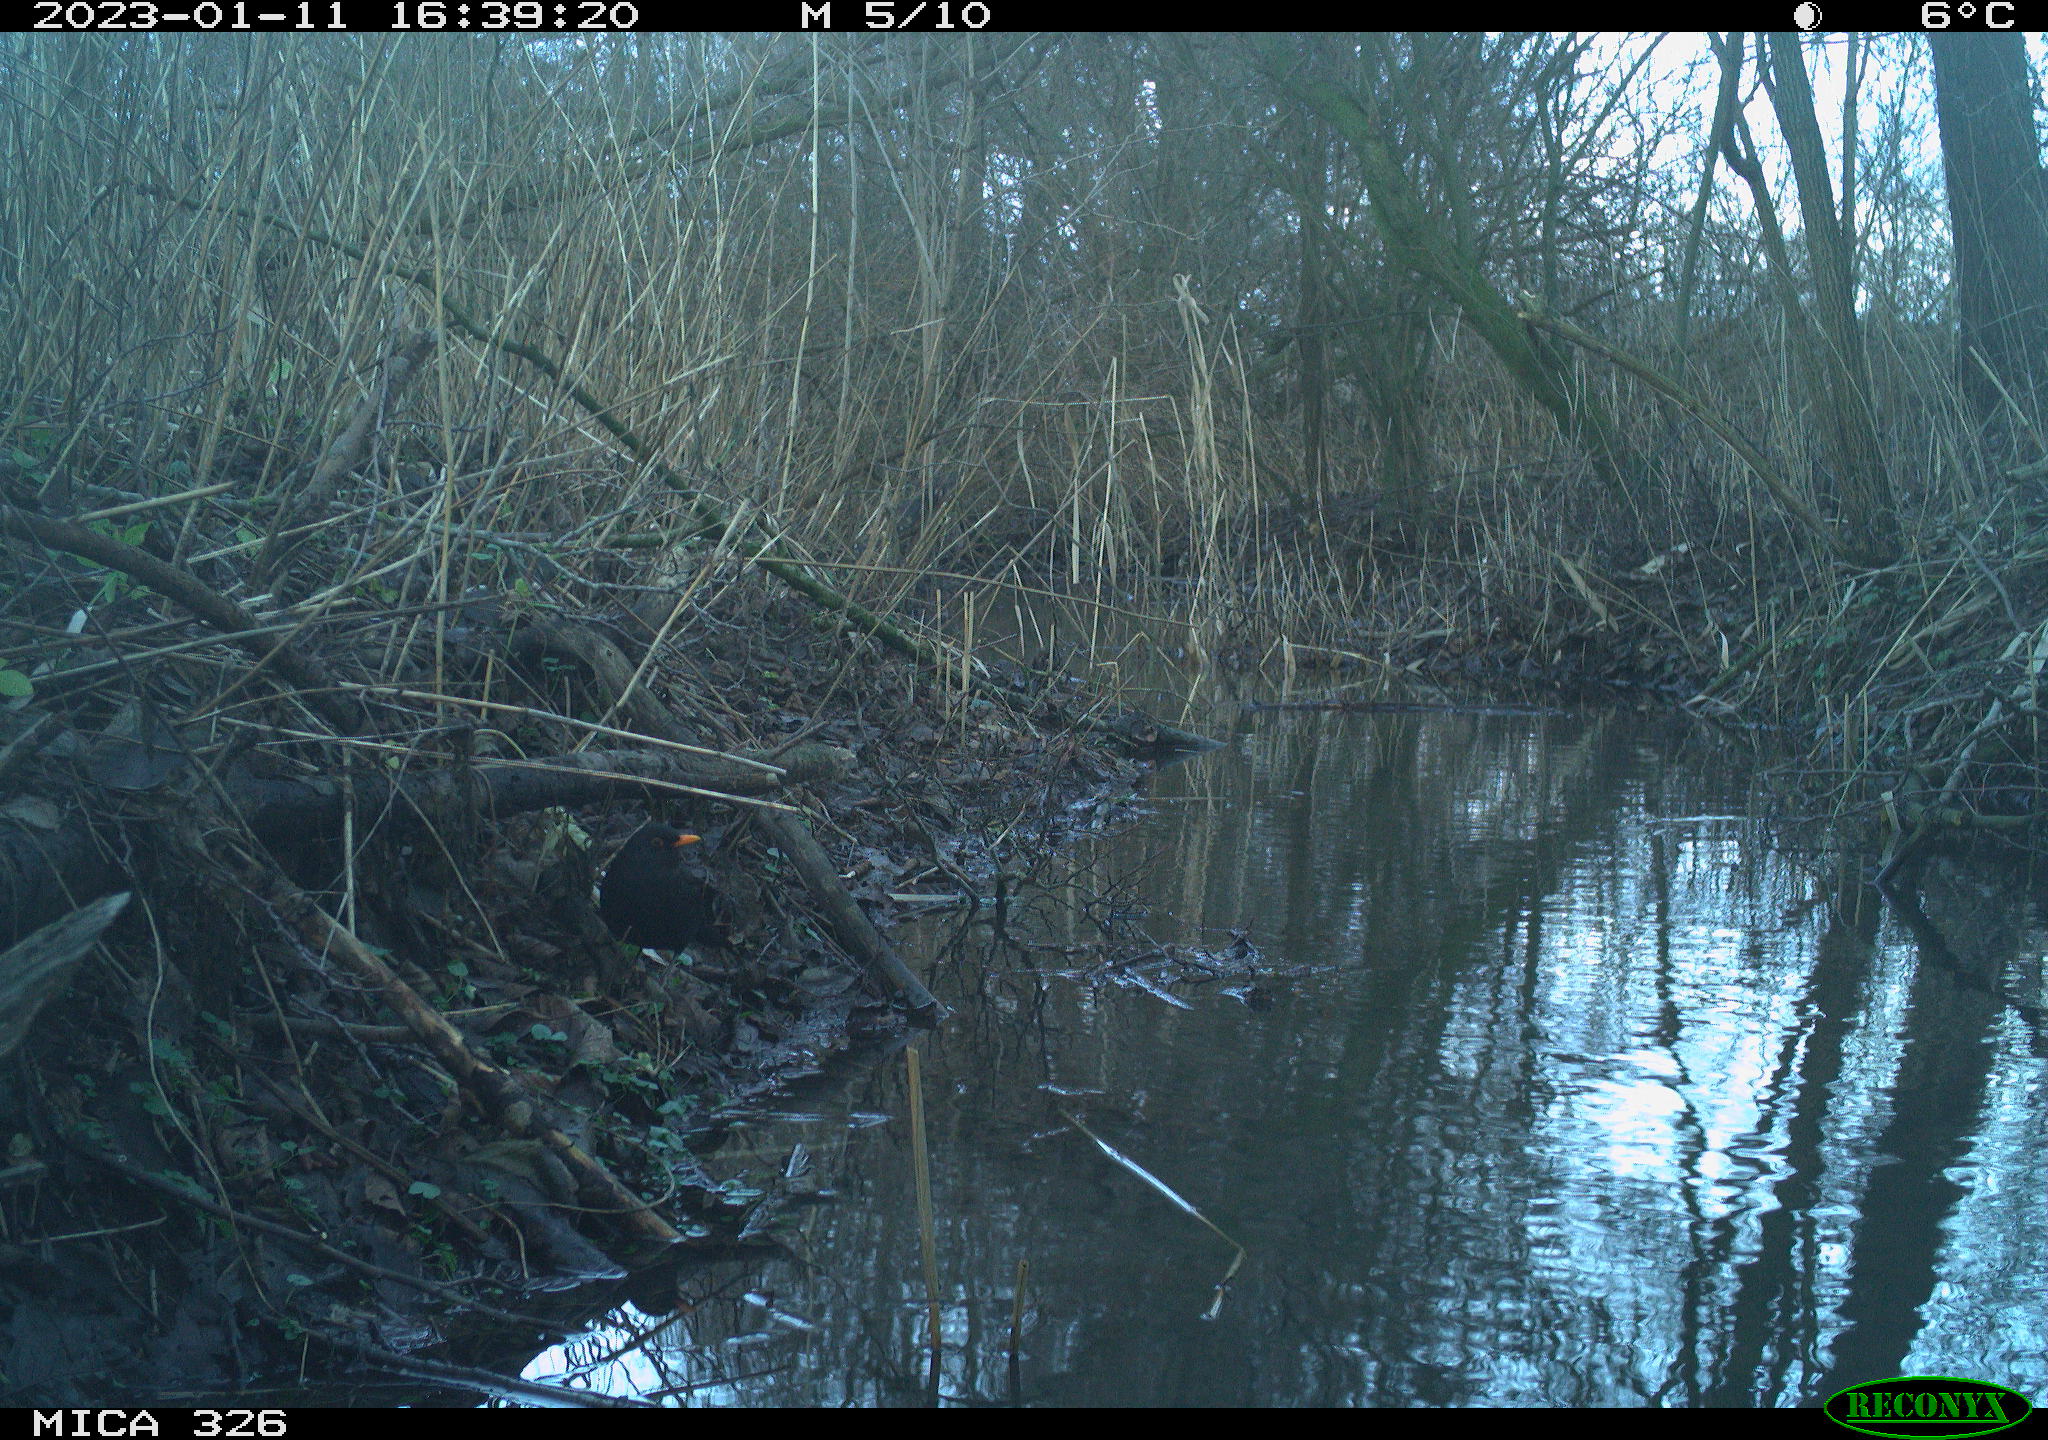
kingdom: Animalia
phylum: Chordata
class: Aves
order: Passeriformes
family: Turdidae
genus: Turdus
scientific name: Turdus merula
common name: Common blackbird
